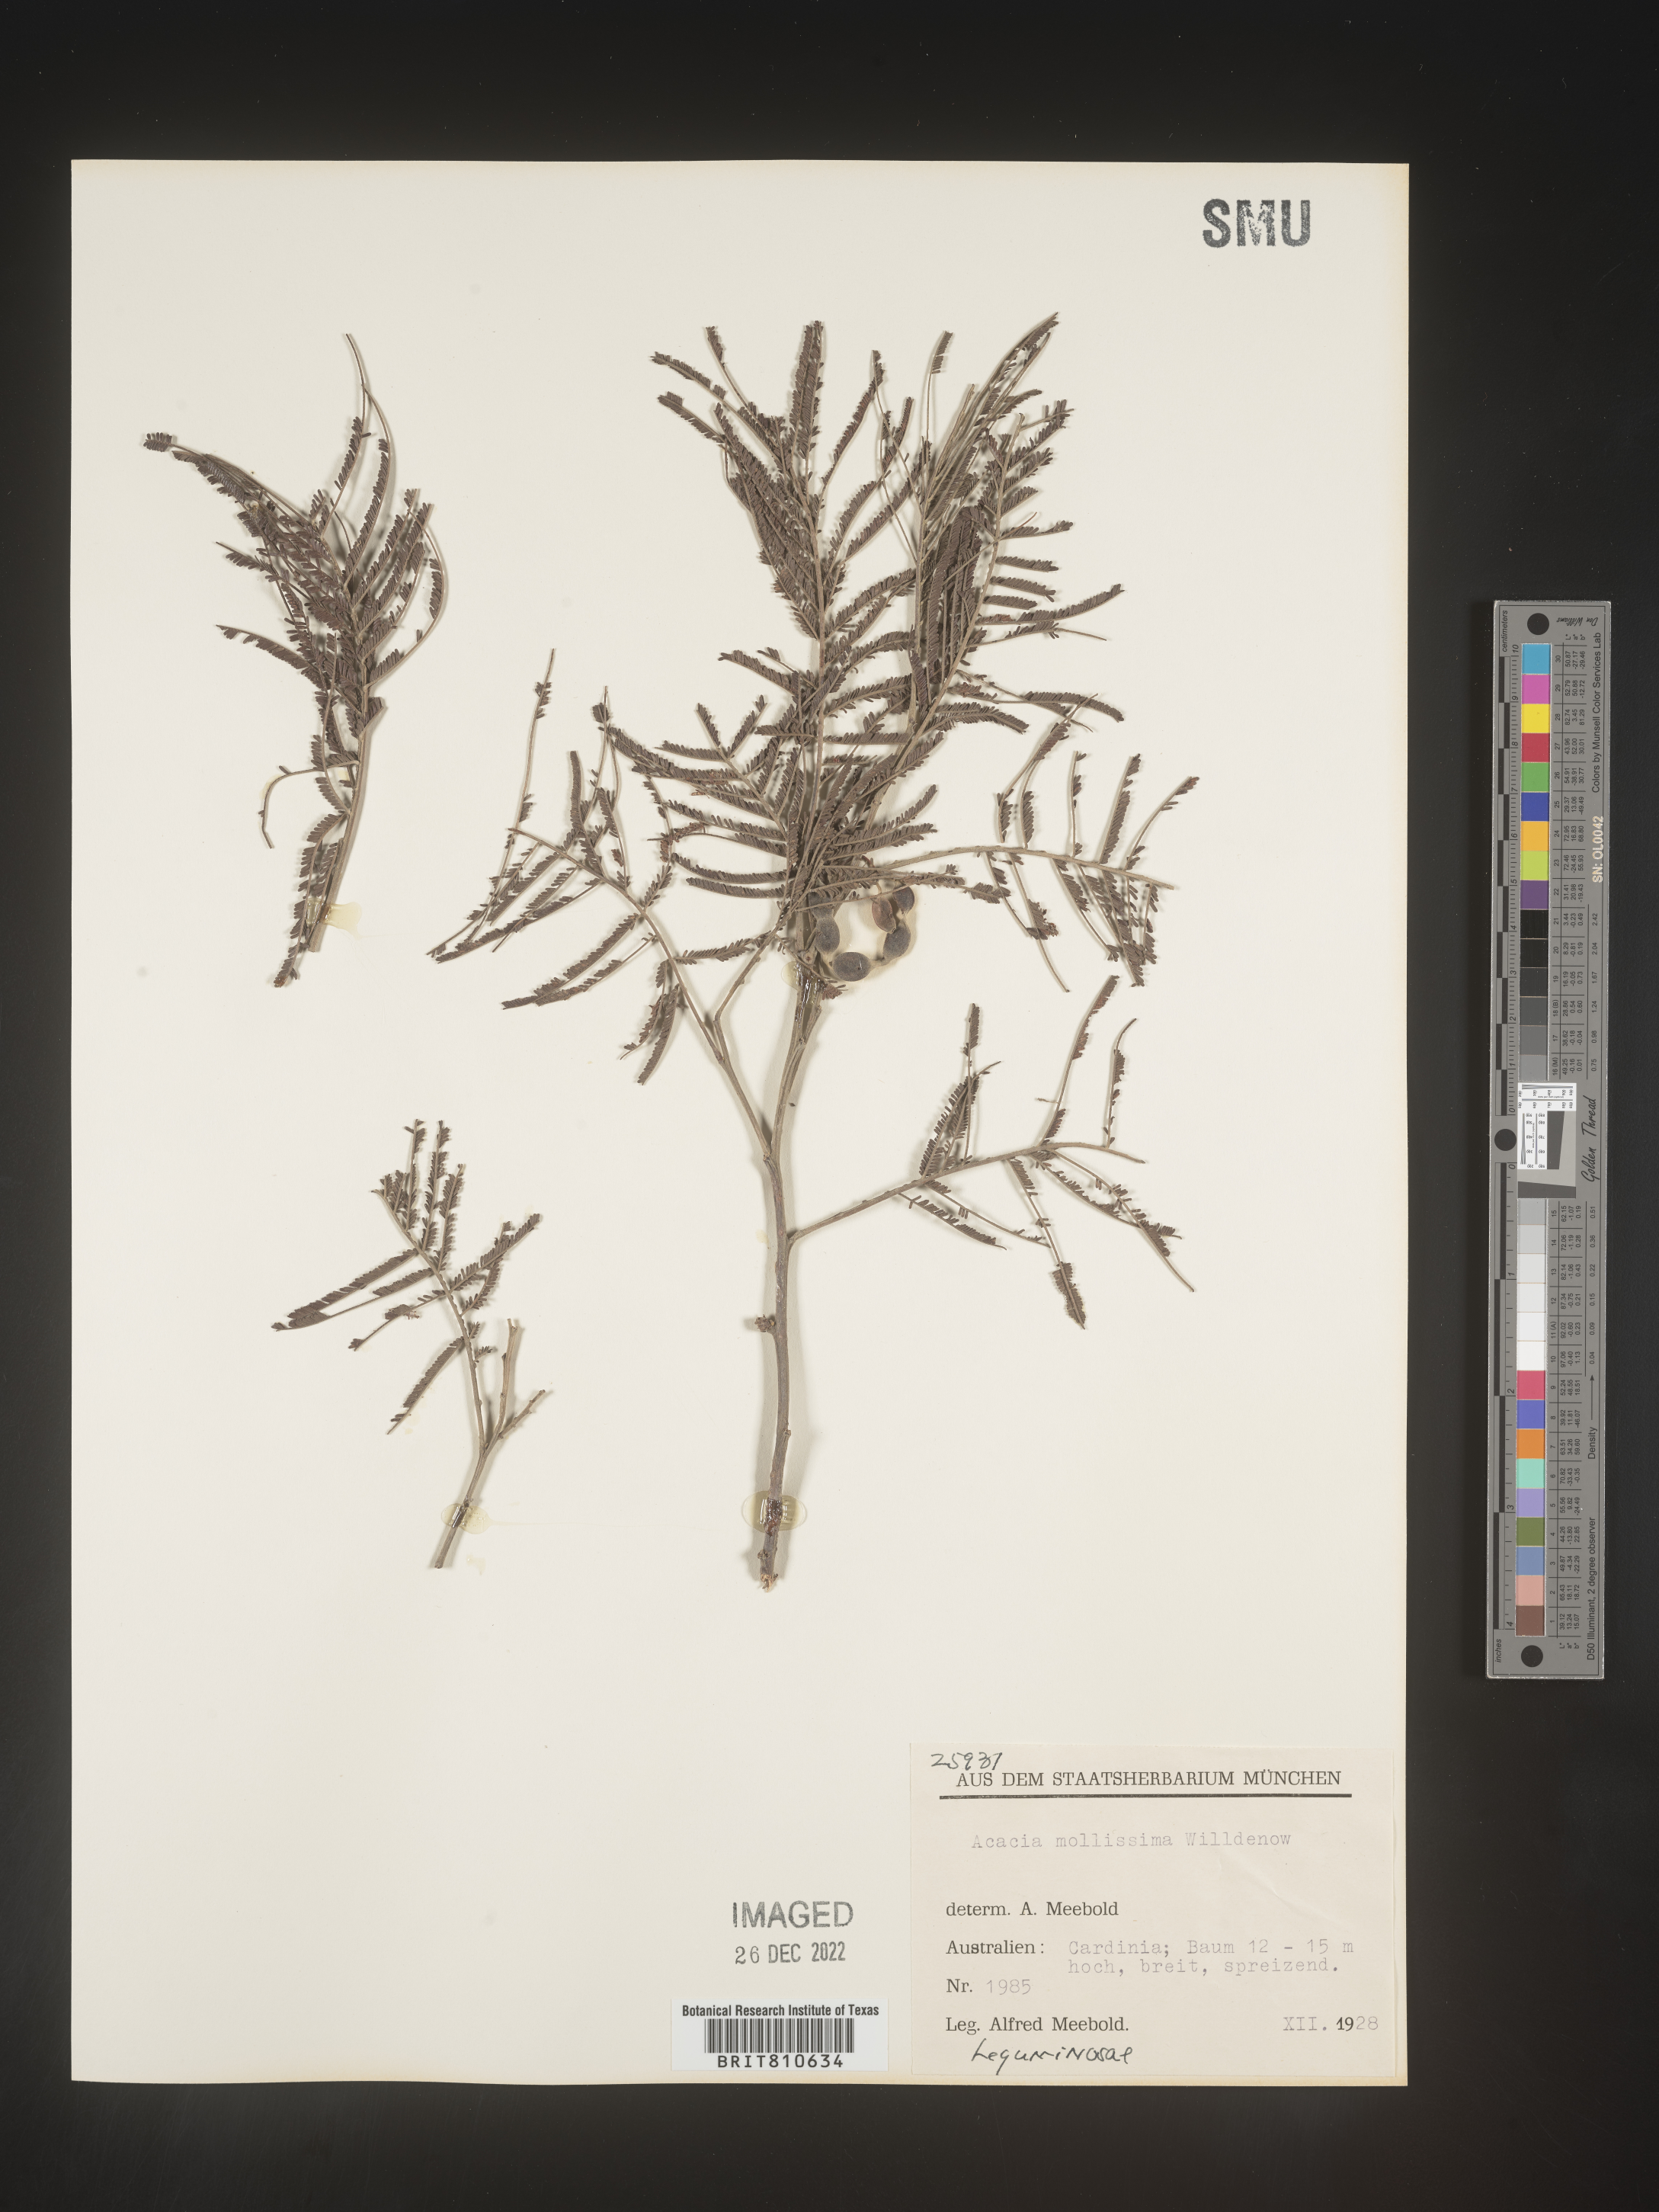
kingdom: Plantae
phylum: Tracheophyta
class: Magnoliopsida
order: Fabales
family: Fabaceae
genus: Acacia
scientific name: Acacia
